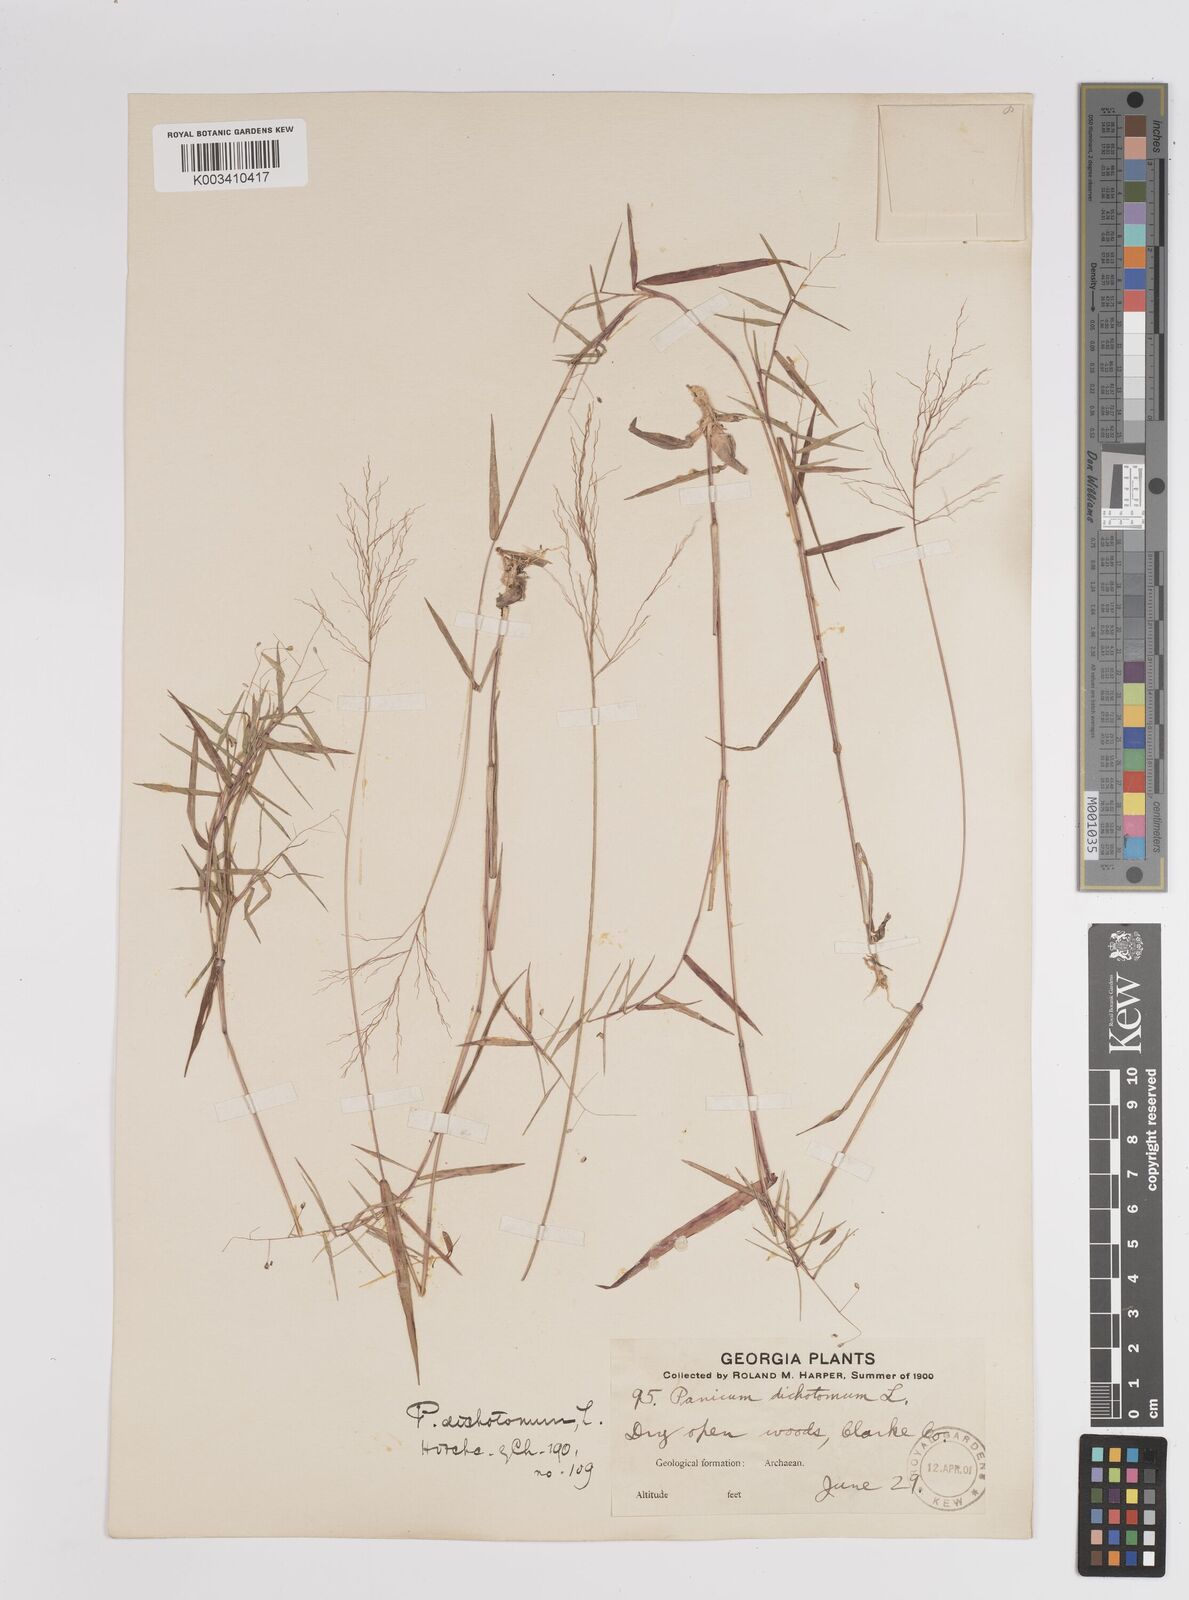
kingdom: Plantae
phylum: Tracheophyta
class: Liliopsida
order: Poales
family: Poaceae
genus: Dichanthelium
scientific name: Dichanthelium dichotomum
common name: Cypress panicgrass
